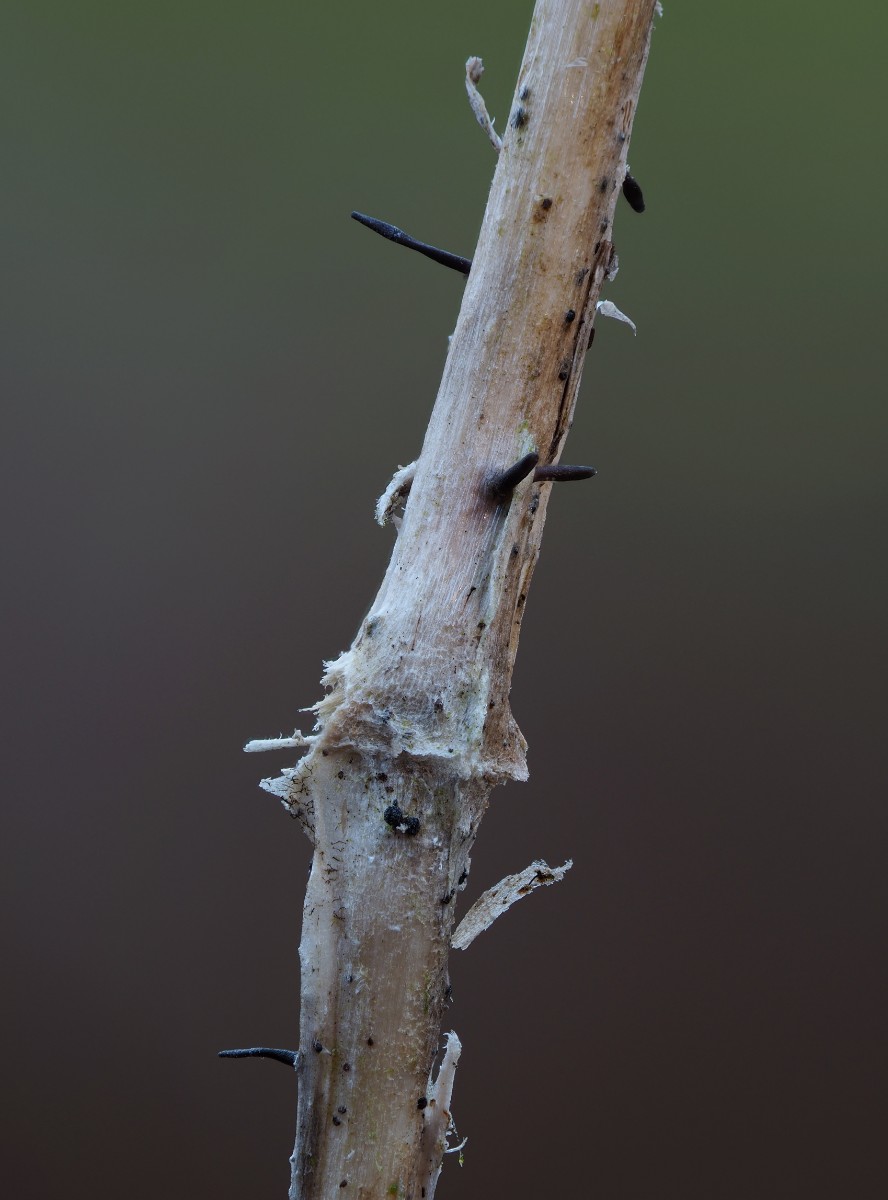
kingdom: Fungi
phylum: Ascomycota
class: Dothideomycetes
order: Acrospermales
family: Acrospermaceae
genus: Acrospermum
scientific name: Acrospermum pallidulum
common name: snerre-stængeltunge
